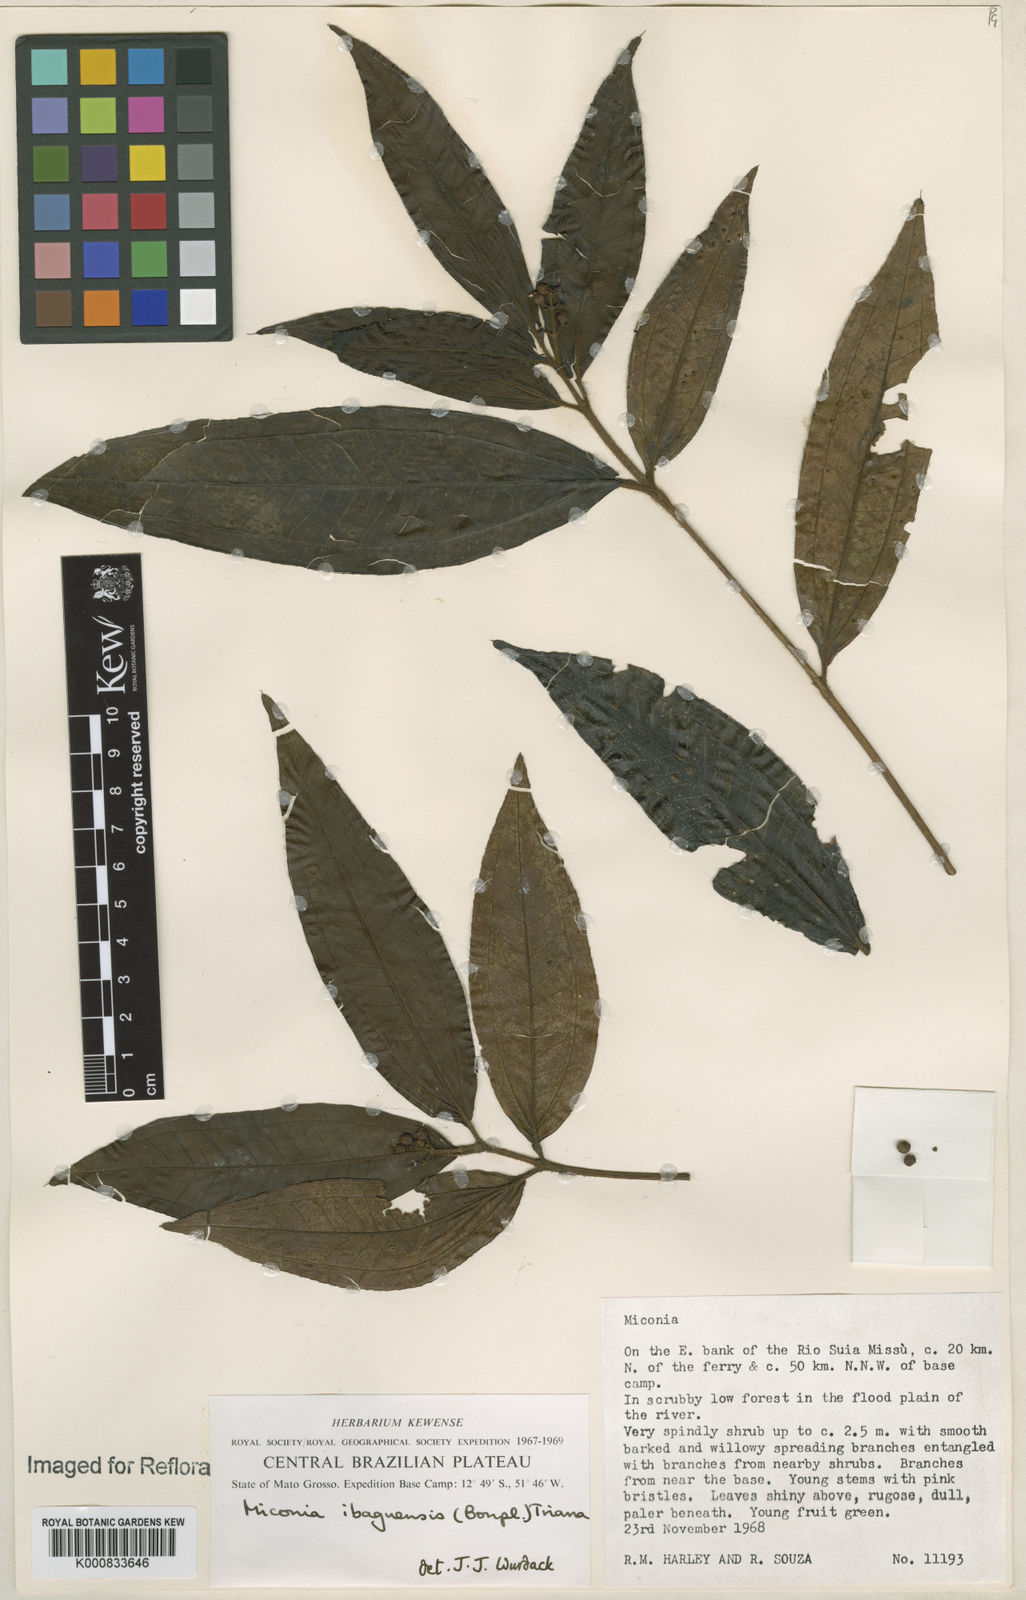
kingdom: Plantae
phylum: Tracheophyta
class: Magnoliopsida
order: Myrtales
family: Melastomataceae
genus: Miconia
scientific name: Miconia ibaguensis
